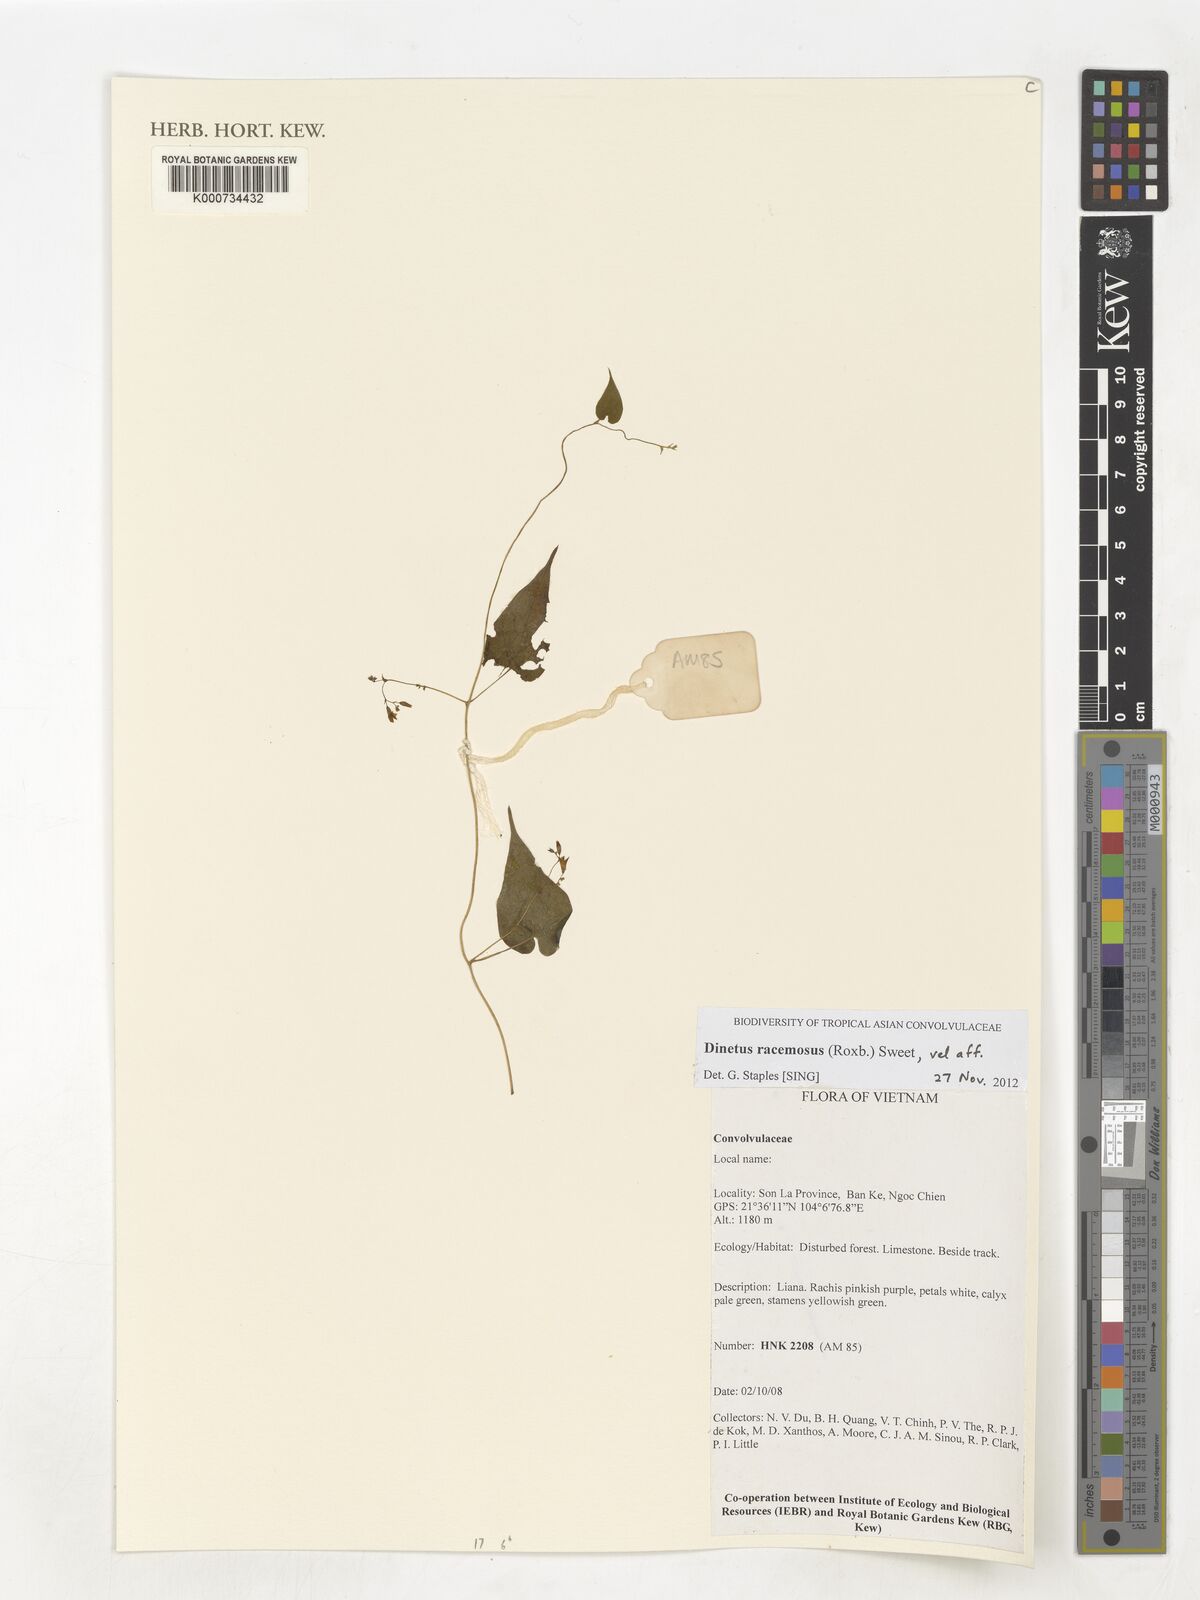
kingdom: Plantae
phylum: Tracheophyta
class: Magnoliopsida
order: Solanales
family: Convolvulaceae
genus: Dinetus
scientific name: Dinetus racemosus
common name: Snowcreeper
